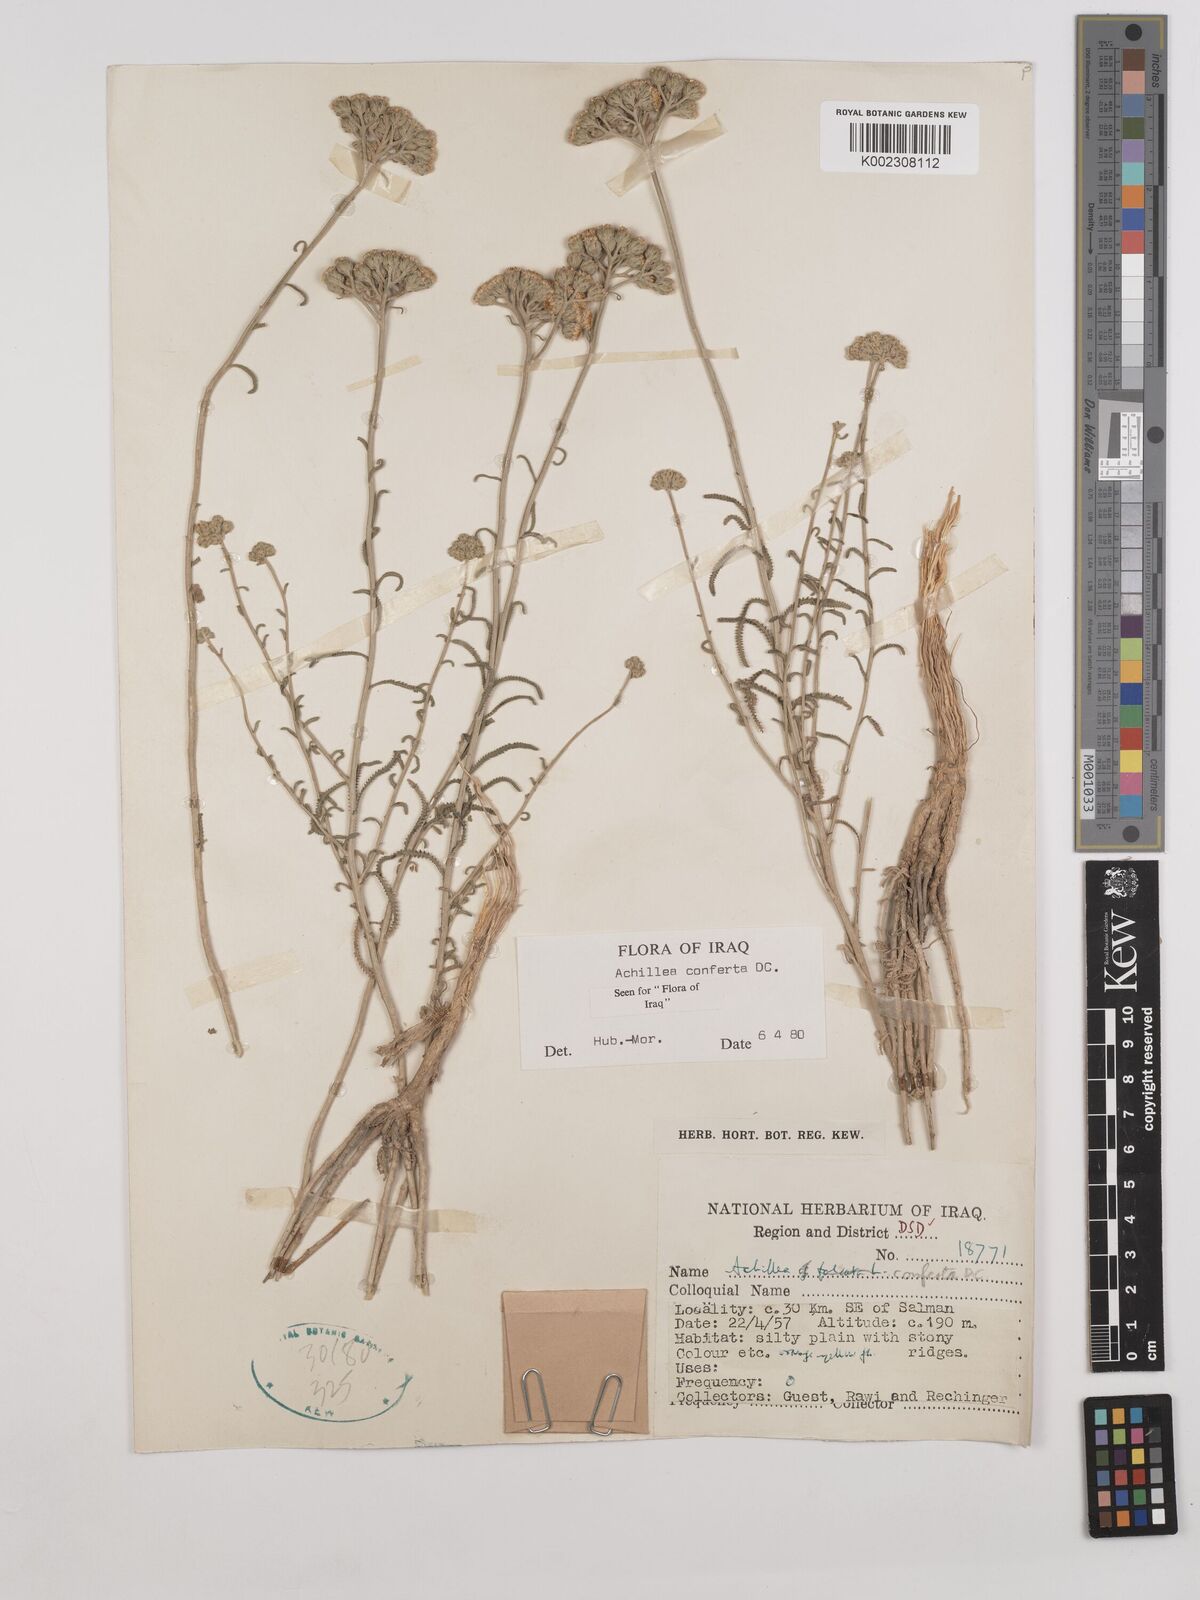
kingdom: Plantae
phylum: Tracheophyta
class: Magnoliopsida
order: Asterales
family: Asteraceae
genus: Achillea
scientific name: Achillea conferta
